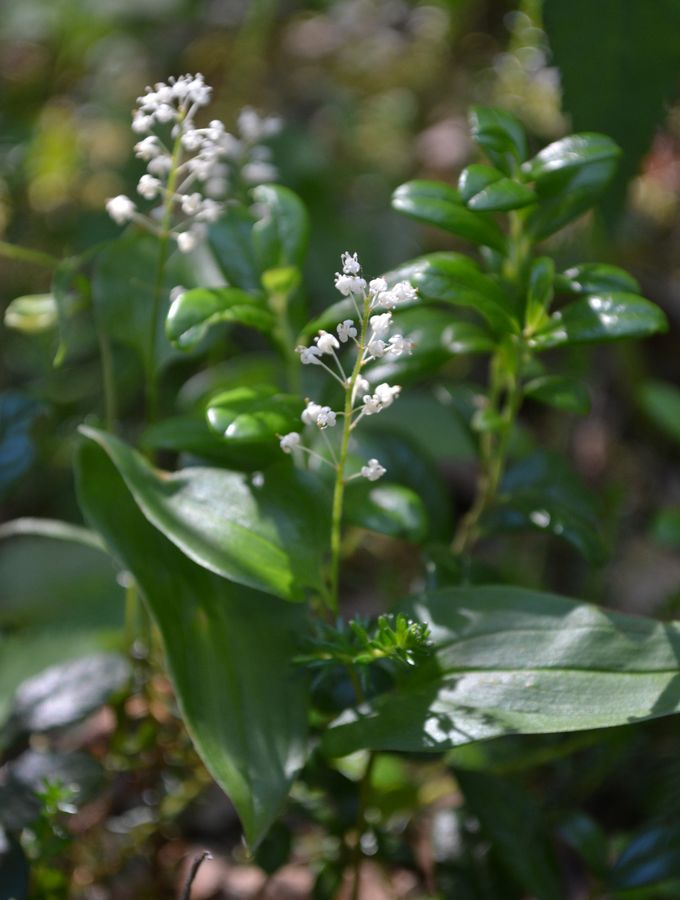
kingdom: Plantae
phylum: Tracheophyta
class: Liliopsida
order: Asparagales
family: Asparagaceae
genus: Maianthemum
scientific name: Maianthemum bifolium
